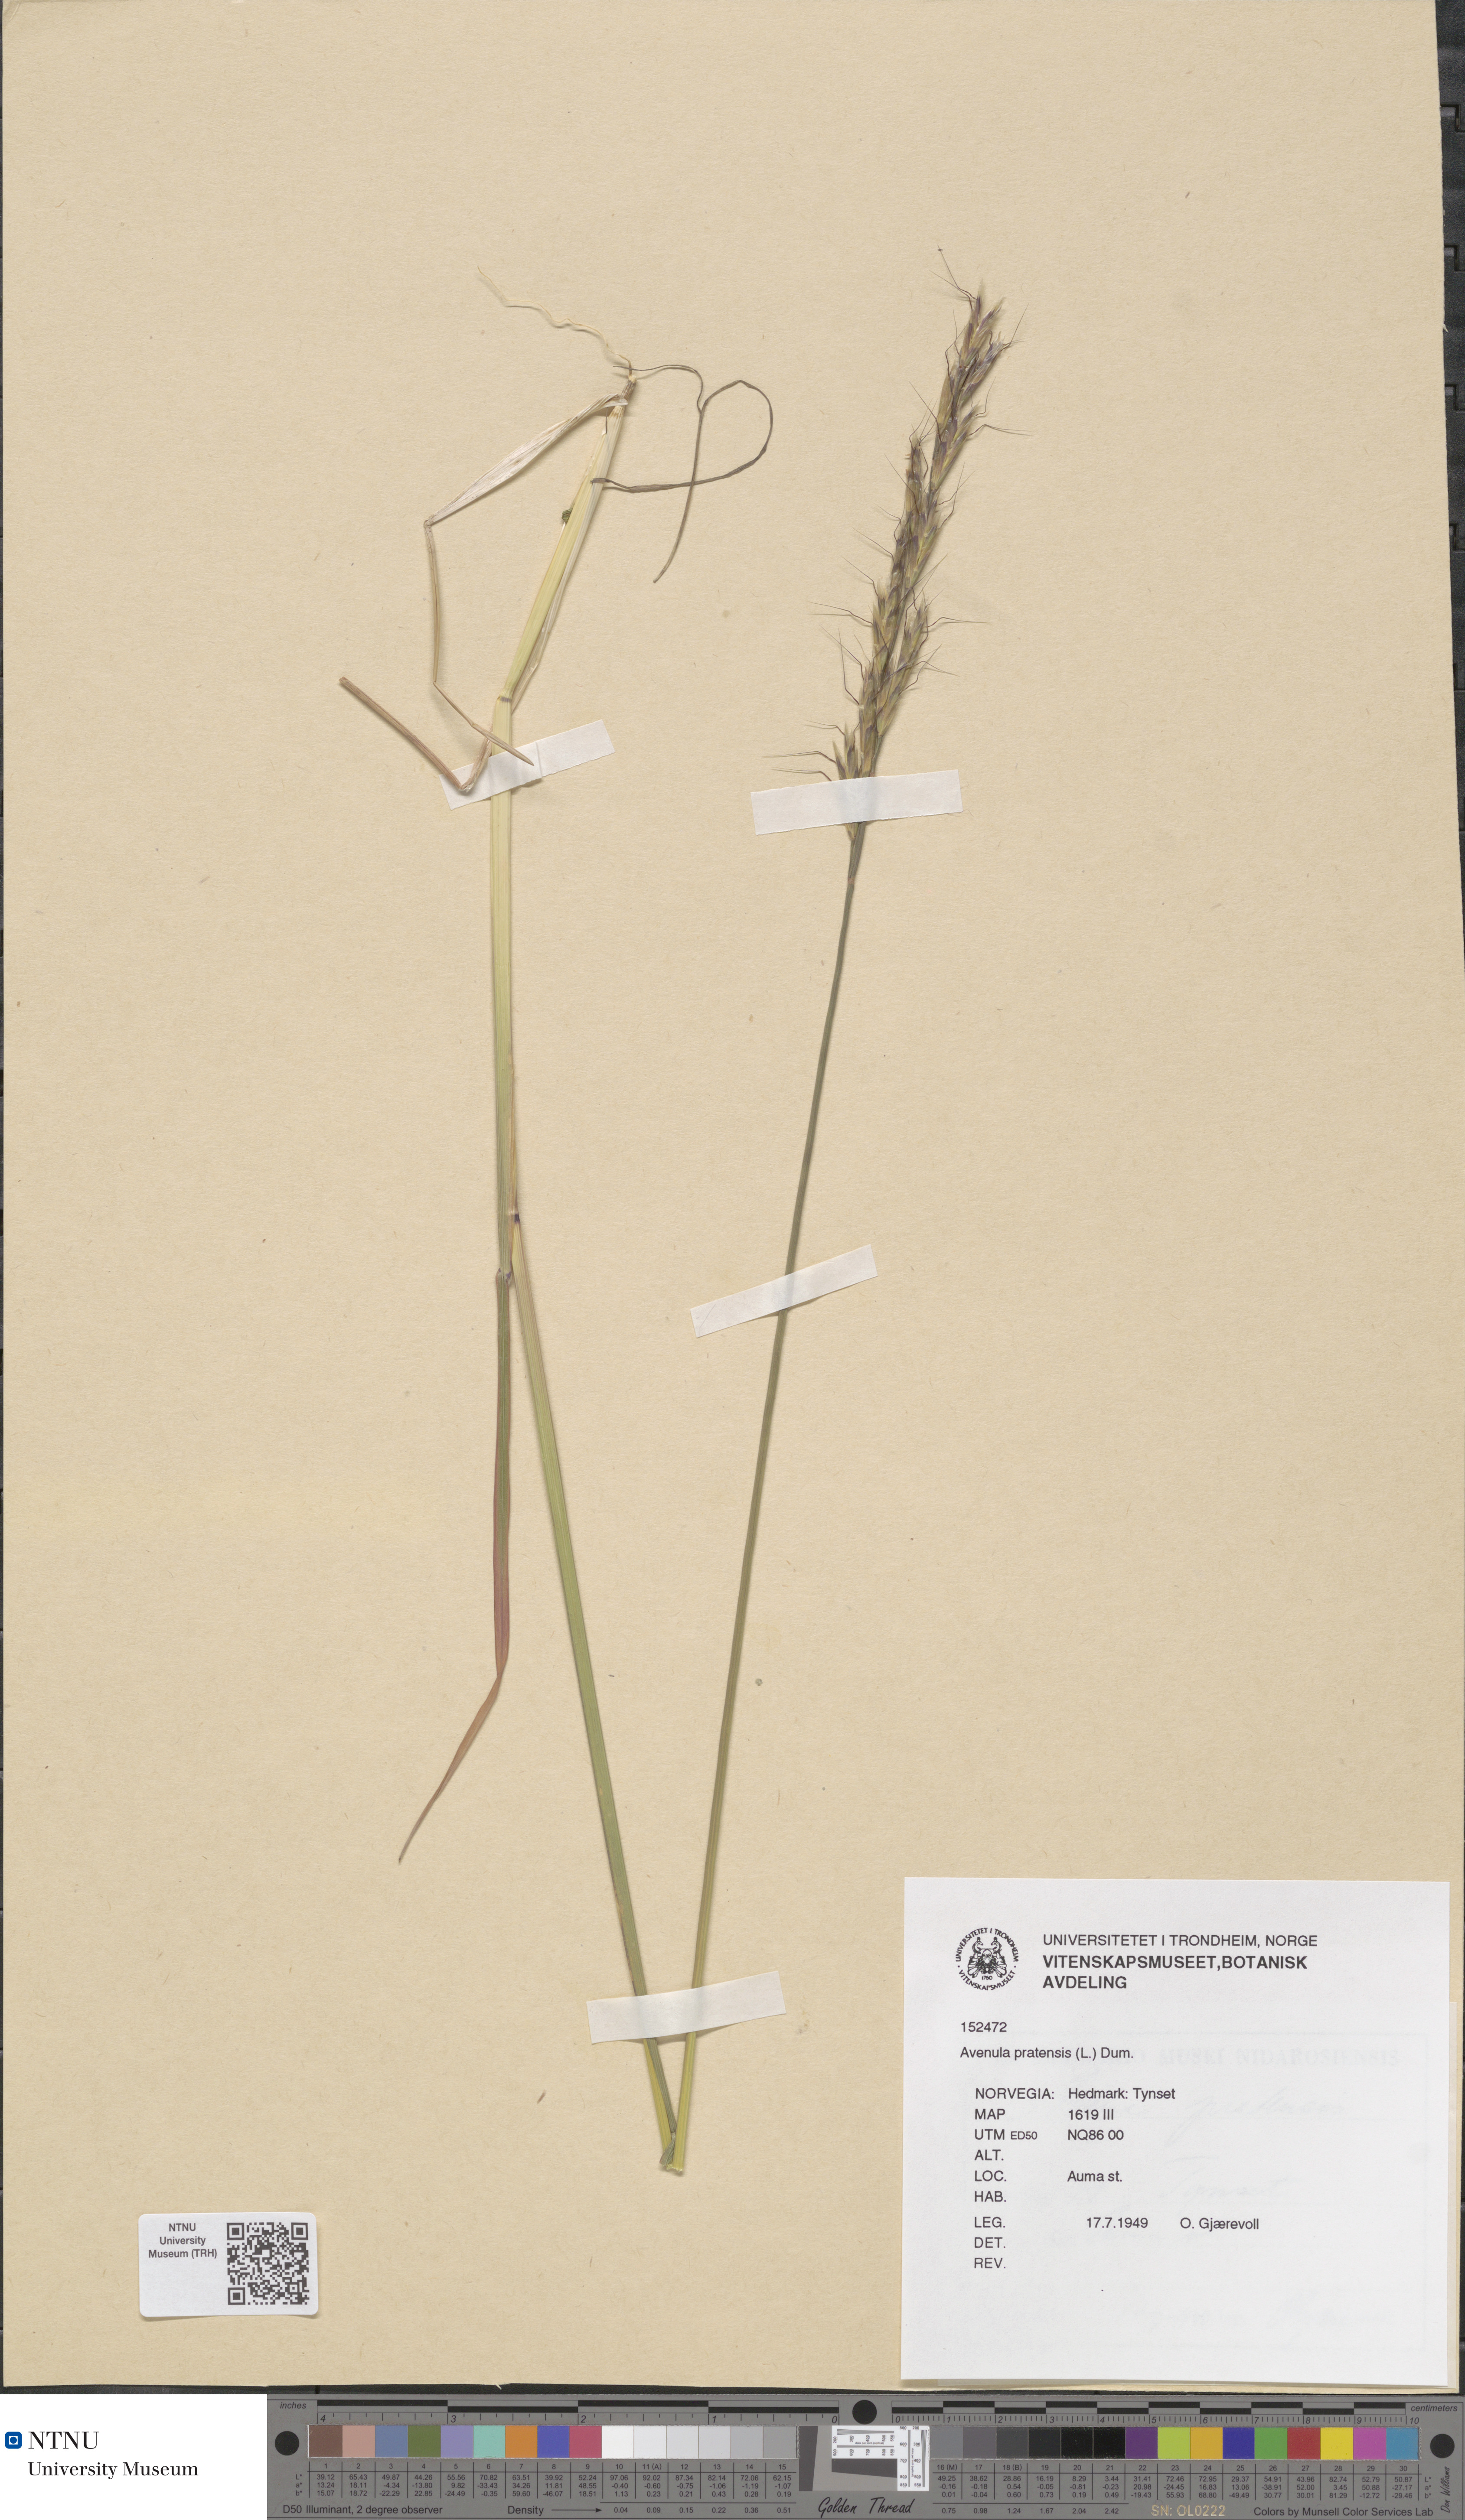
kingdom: Plantae
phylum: Tracheophyta
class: Liliopsida
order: Poales
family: Poaceae
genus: Helictochloa
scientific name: Helictochloa pratensis
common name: Meadow oat grass
